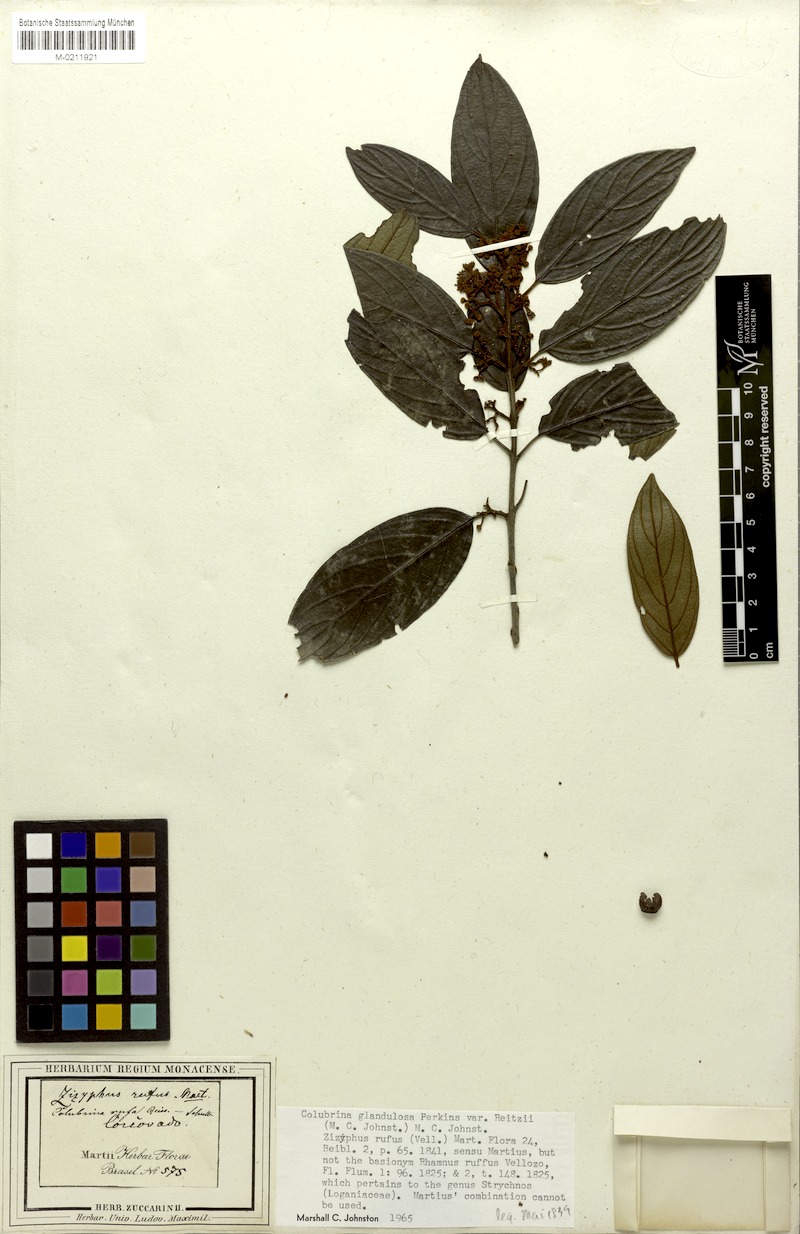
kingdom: Plantae
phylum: Tracheophyta
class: Magnoliopsida
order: Rosales
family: Rhamnaceae
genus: Colubrina
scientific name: Colubrina glandulosa
